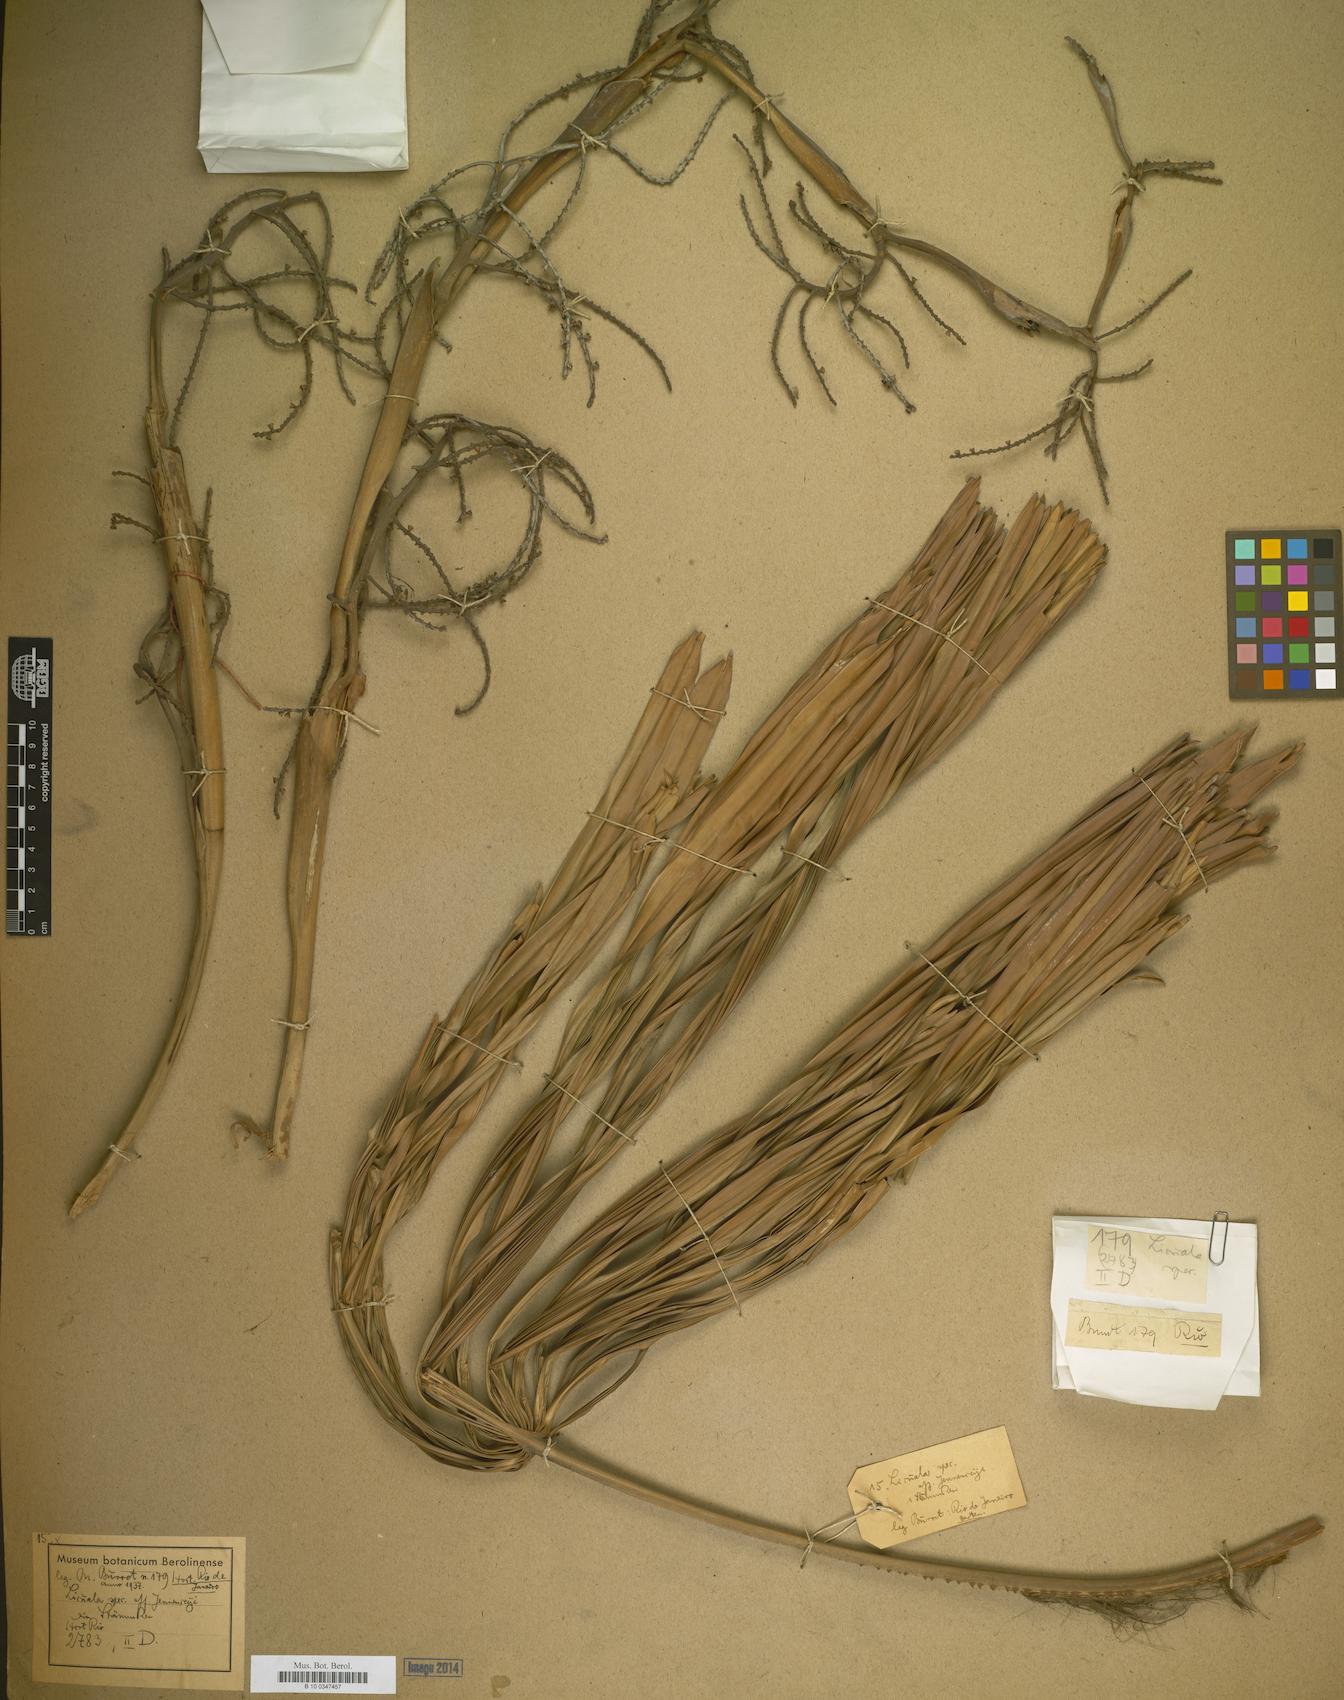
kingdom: Plantae
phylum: Tracheophyta
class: Liliopsida
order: Arecales
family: Arecaceae
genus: Licuala
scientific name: Licuala ramsayi
